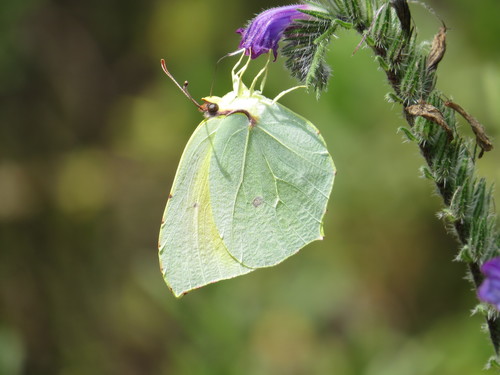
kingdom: Animalia
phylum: Arthropoda
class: Insecta
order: Lepidoptera
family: Pieridae
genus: Gonepteryx
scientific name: Gonepteryx cleopatra
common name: Cleopatra
